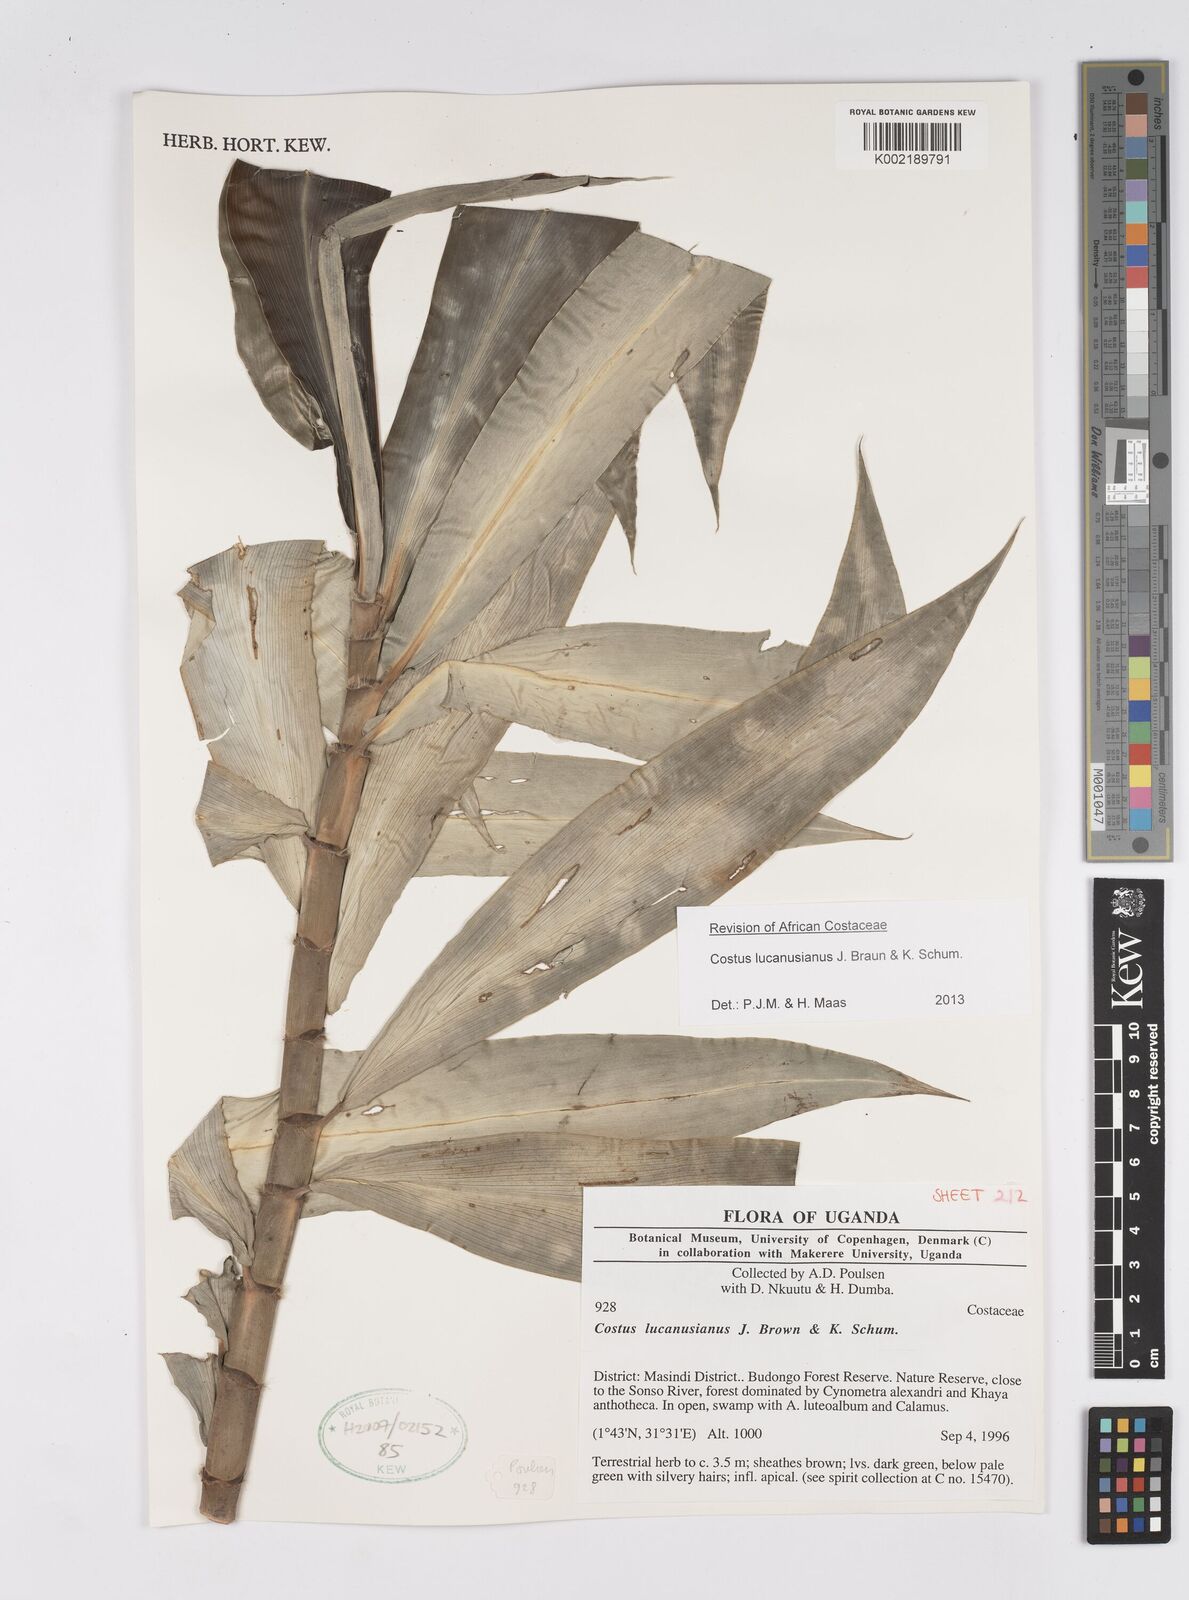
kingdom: Plantae
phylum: Tracheophyta
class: Liliopsida
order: Zingiberales
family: Costaceae
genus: Costus
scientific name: Costus lucanusianus
